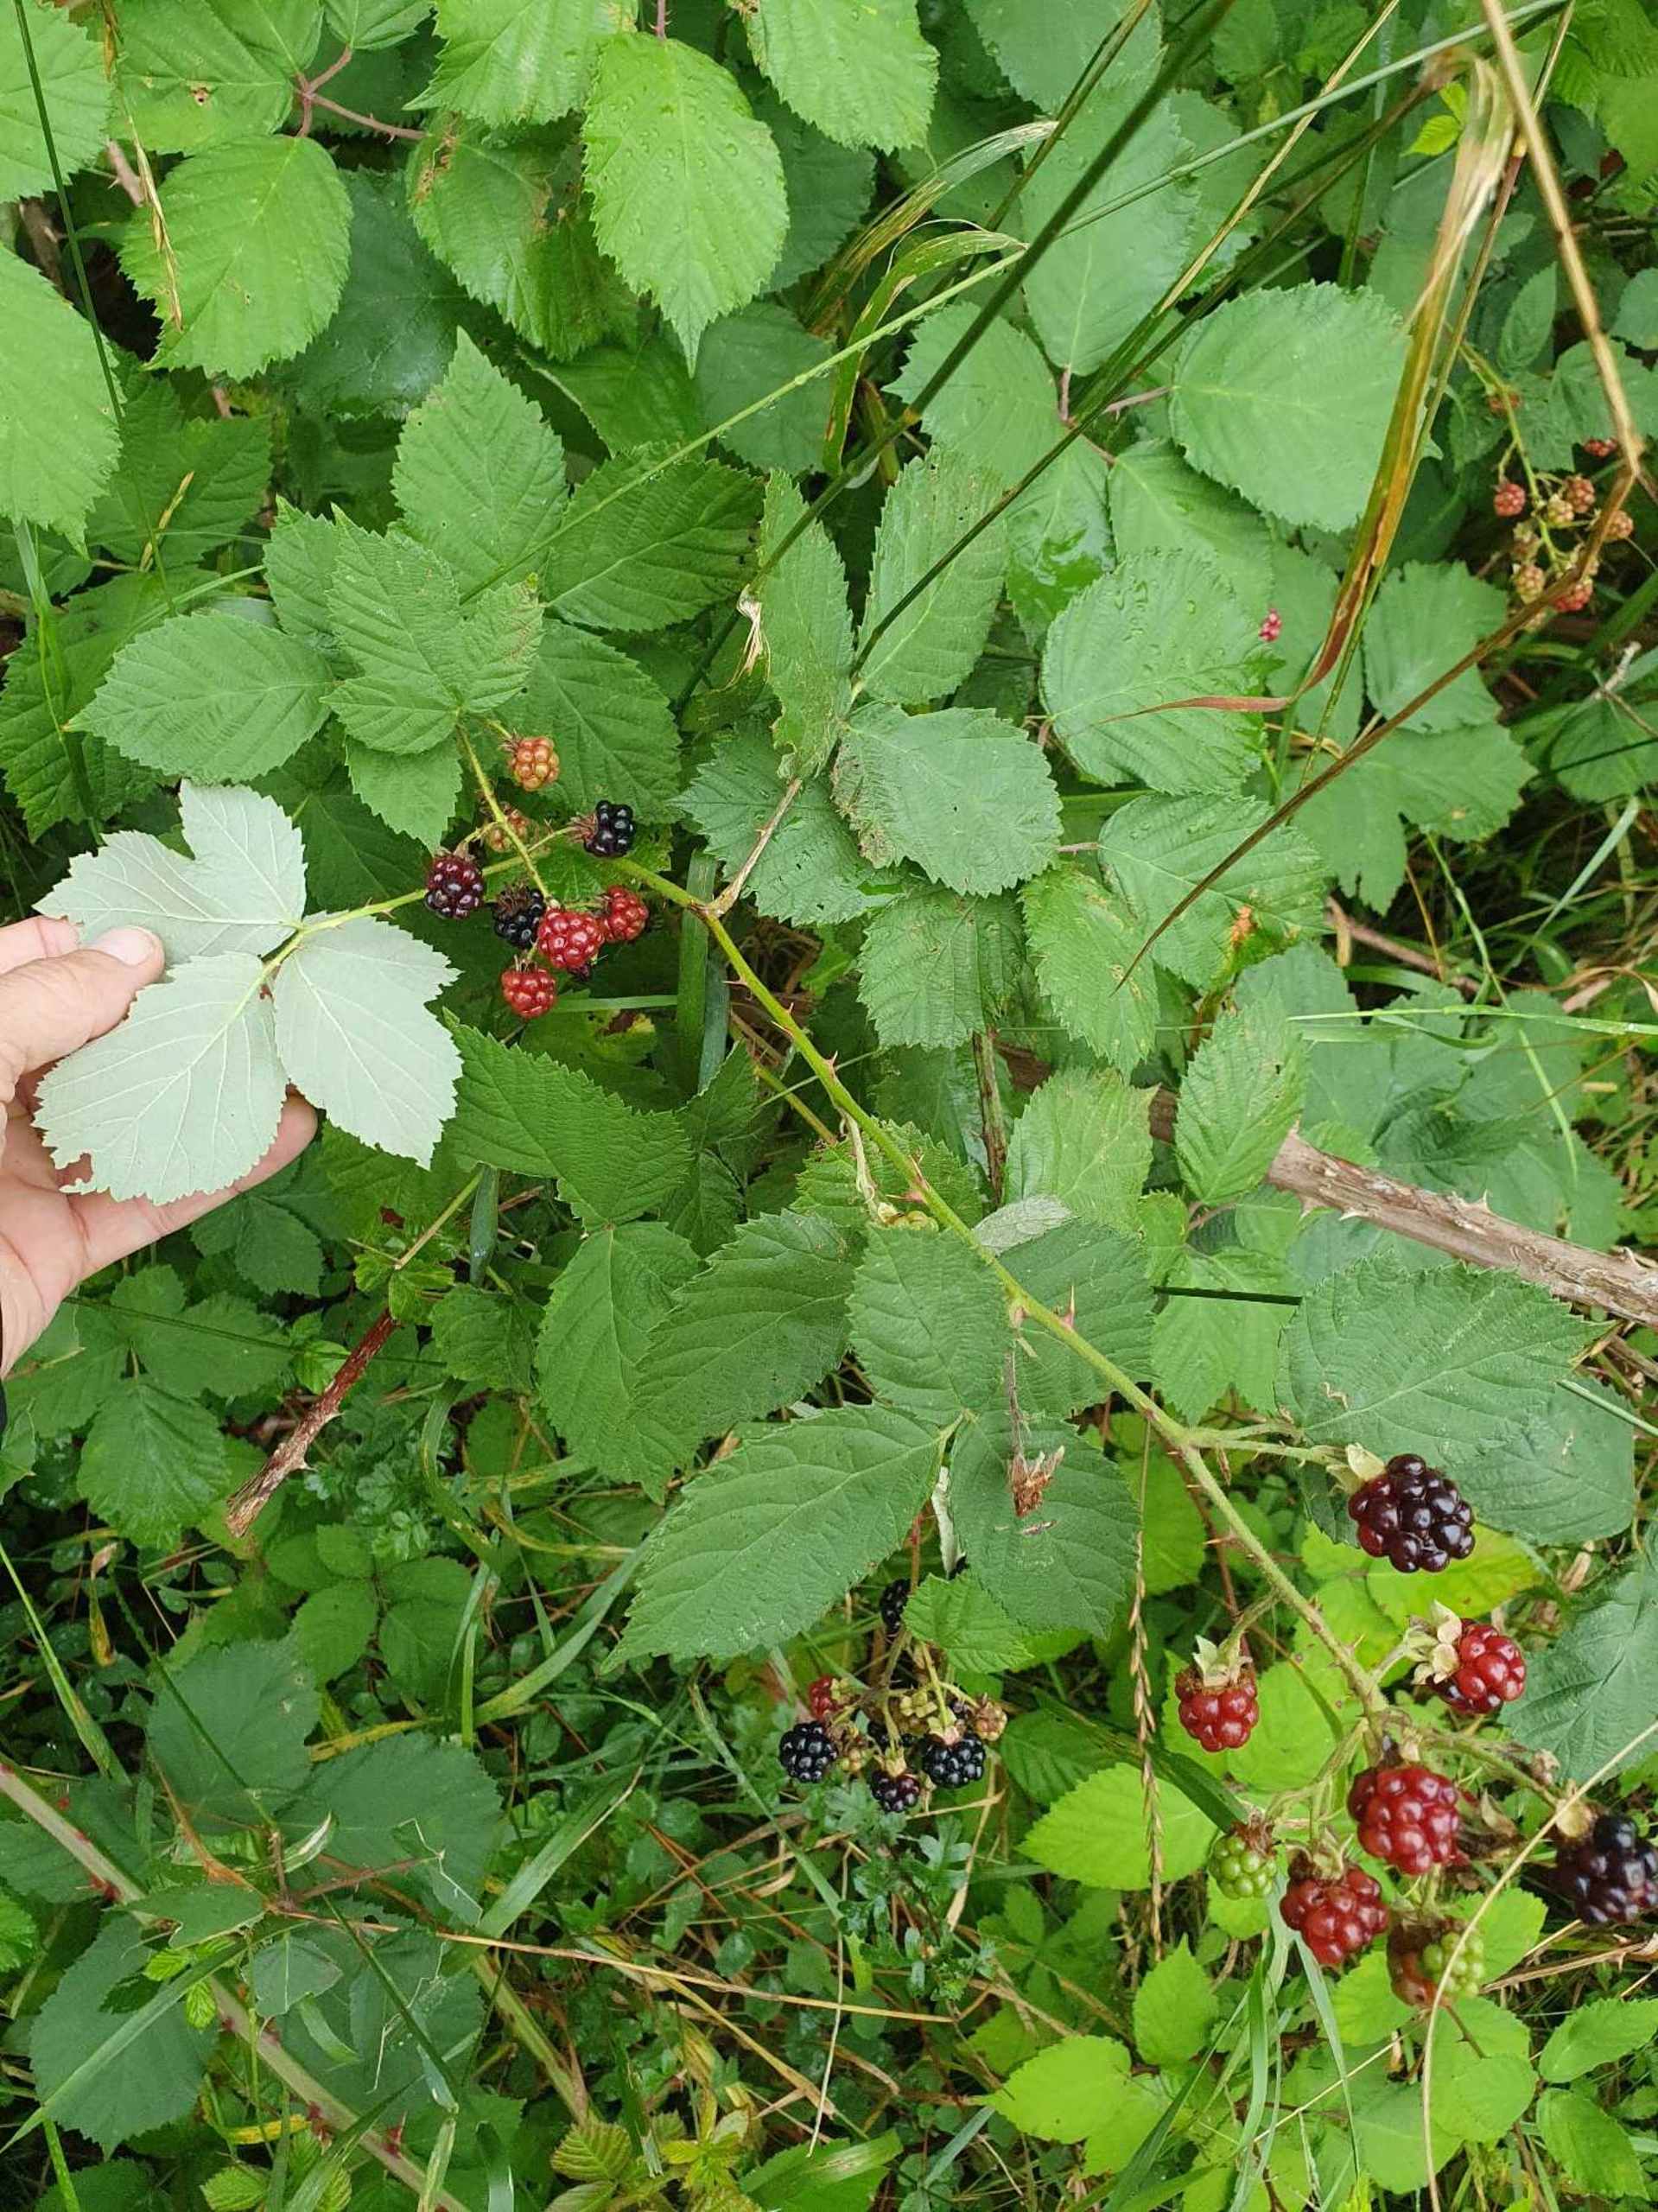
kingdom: Plantae
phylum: Tracheophyta
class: Magnoliopsida
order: Rosales
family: Rosaceae
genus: Rubus
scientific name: Rubus armeniacus
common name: Armensk brombær
